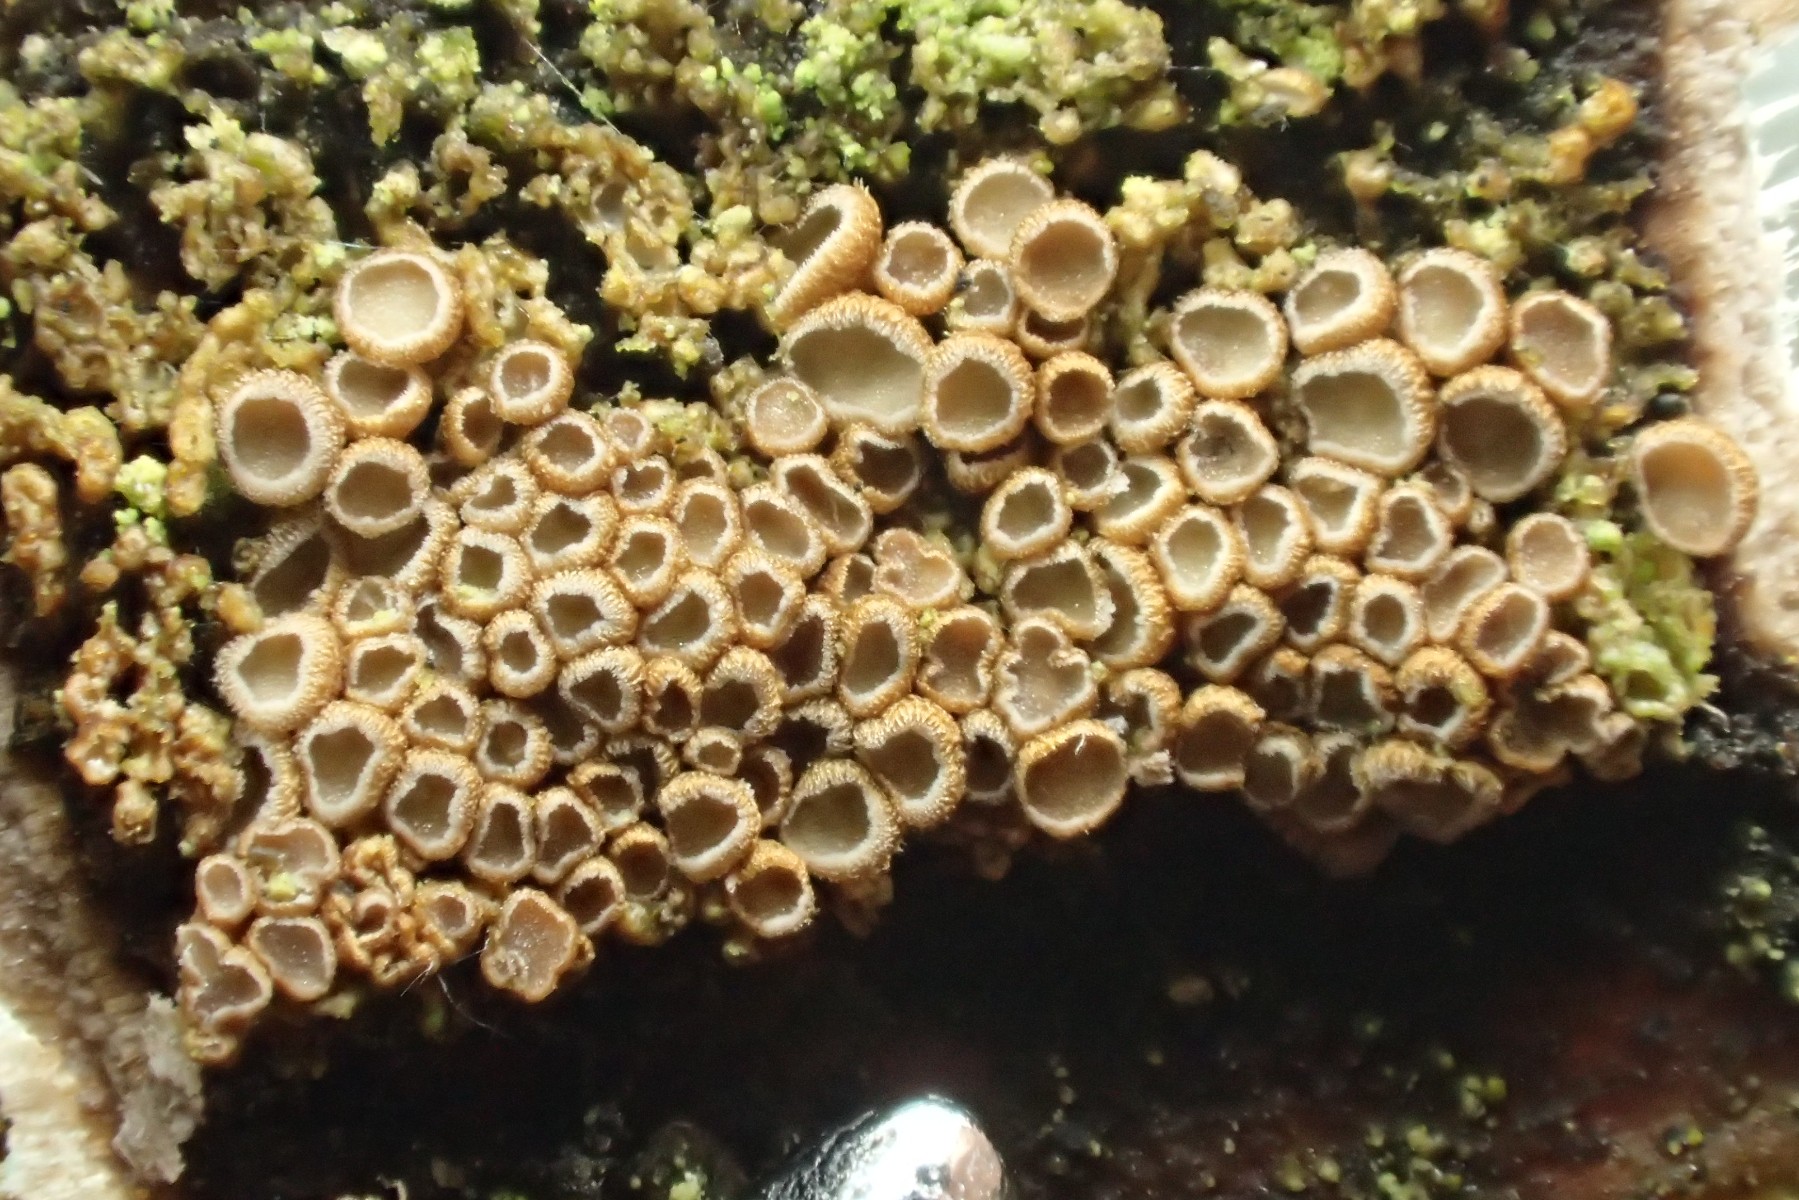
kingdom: Fungi
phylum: Basidiomycota
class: Agaricomycetes
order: Agaricales
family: Niaceae
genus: Merismodes
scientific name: Merismodes anomala
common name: almindelig læderskål
